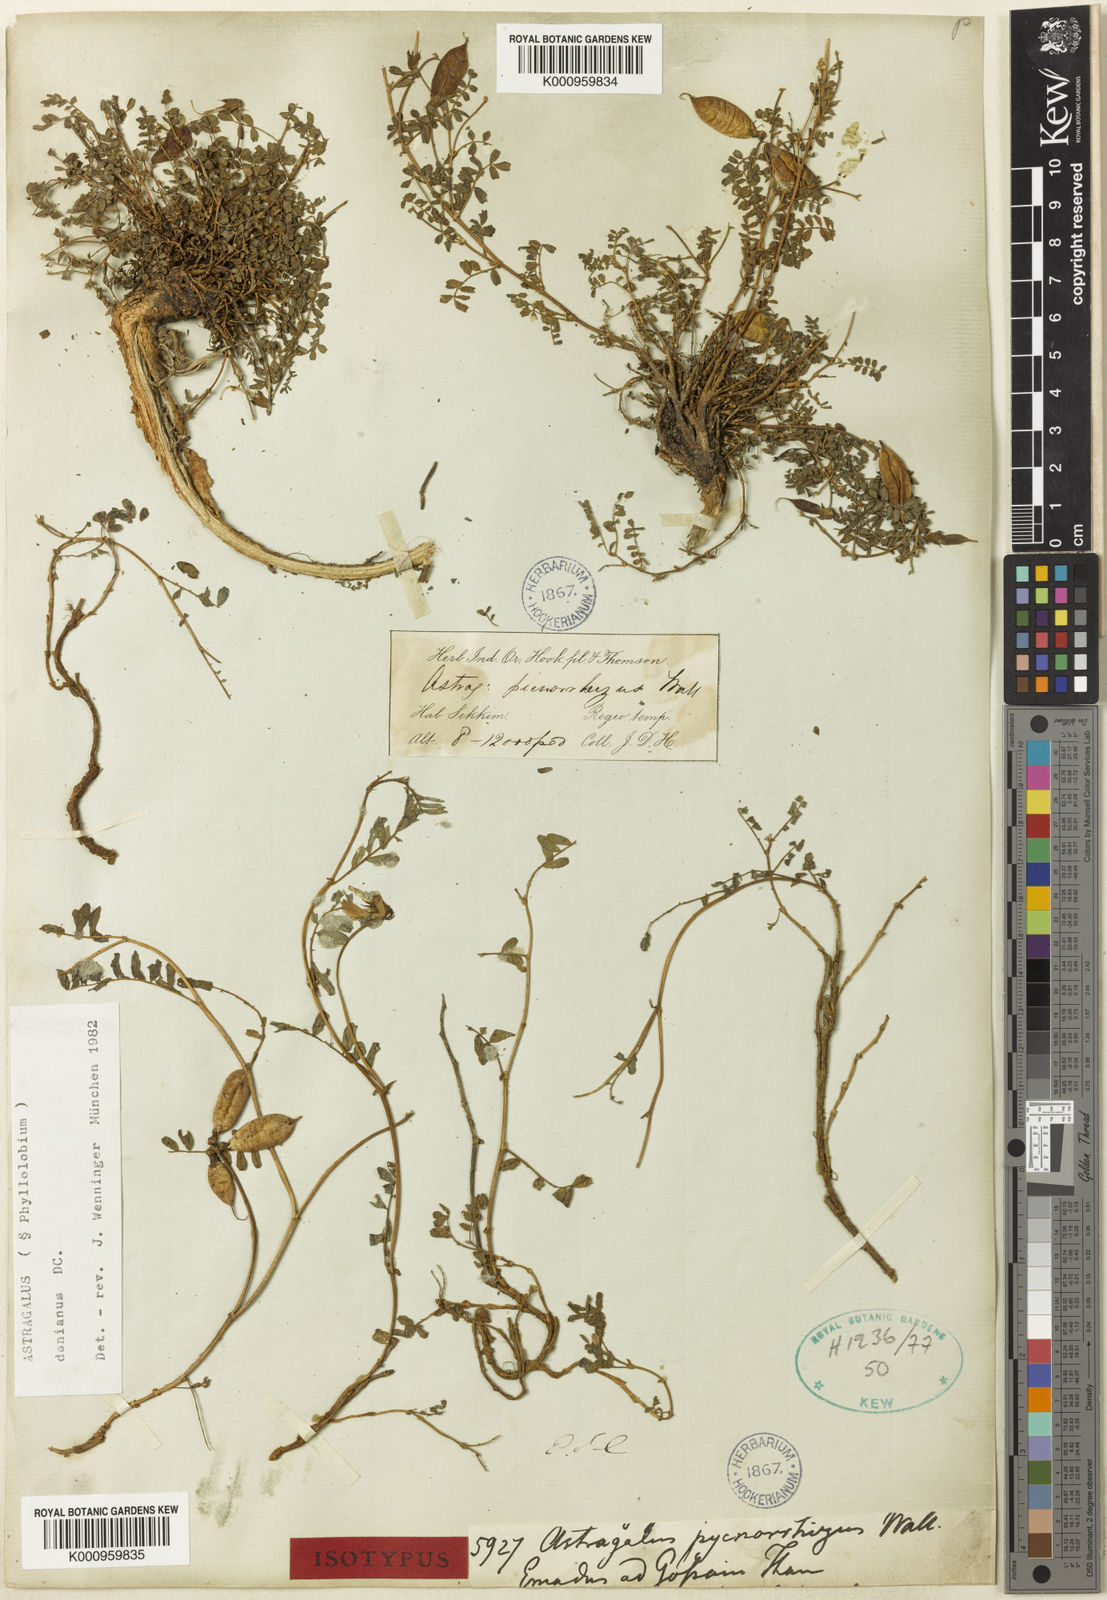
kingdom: Plantae
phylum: Tracheophyta
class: Magnoliopsida
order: Fabales
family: Fabaceae
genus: Astragalus
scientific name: Astragalus
